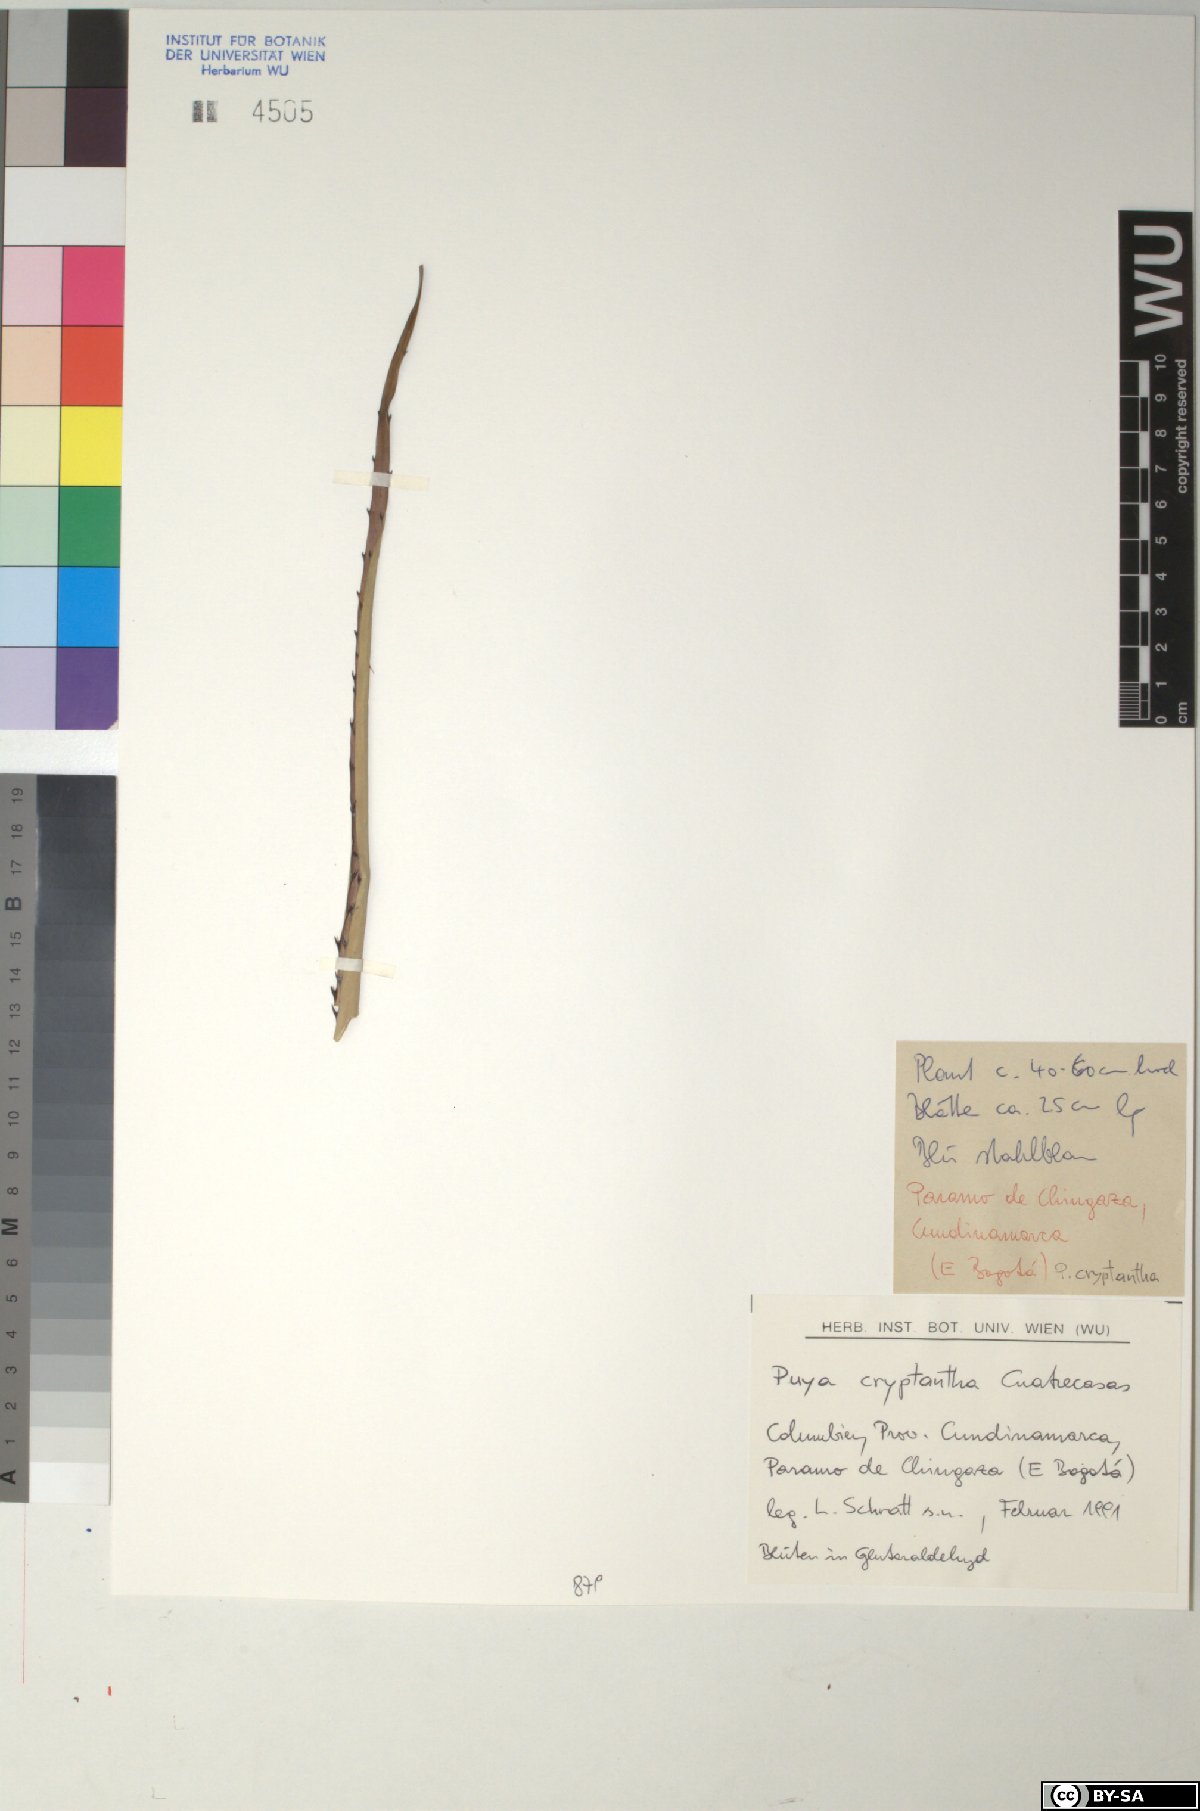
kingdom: Plantae
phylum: Tracheophyta
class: Liliopsida
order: Poales
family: Bromeliaceae
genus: Puya
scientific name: Puya cryptantha
